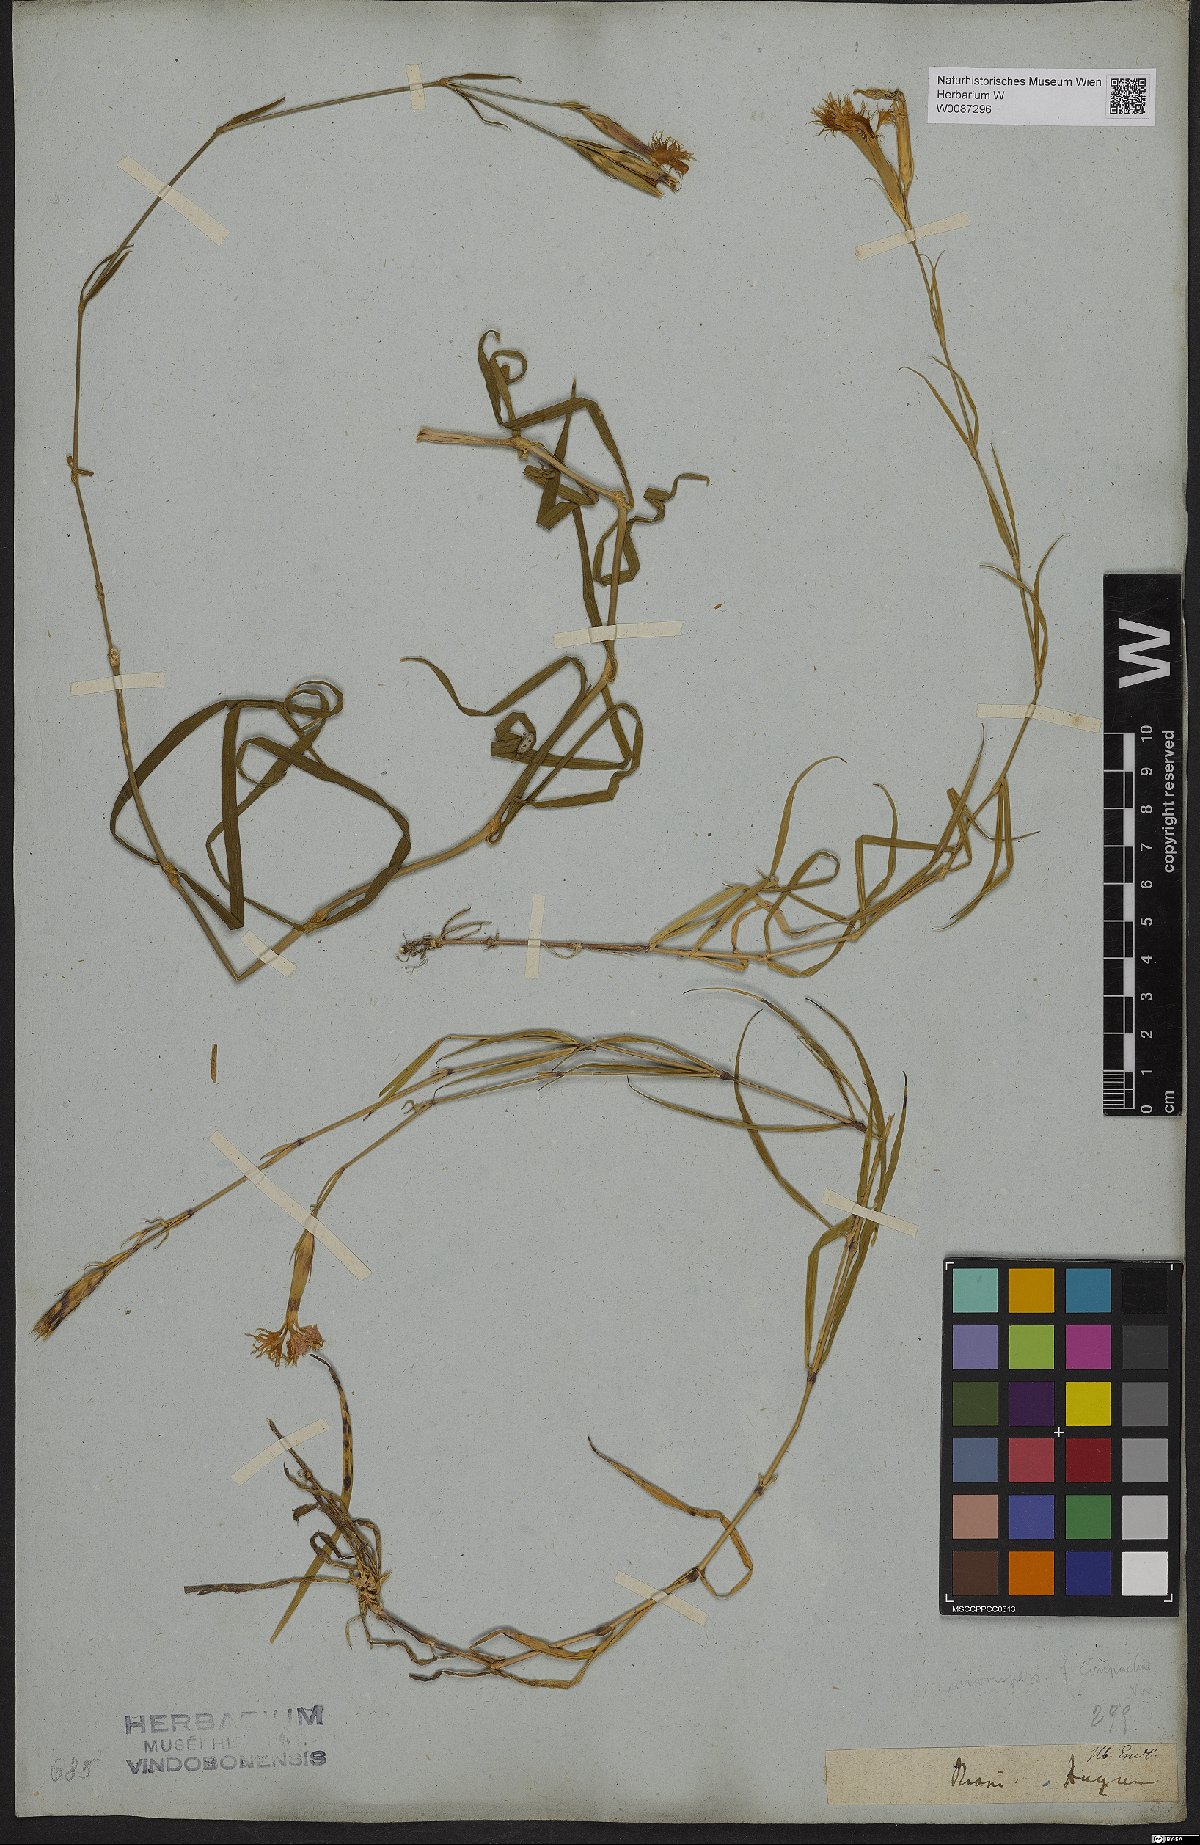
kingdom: Plantae
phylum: Tracheophyta
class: Magnoliopsida
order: Caryophyllales
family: Caryophyllaceae
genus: Dianthus
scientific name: Dianthus
